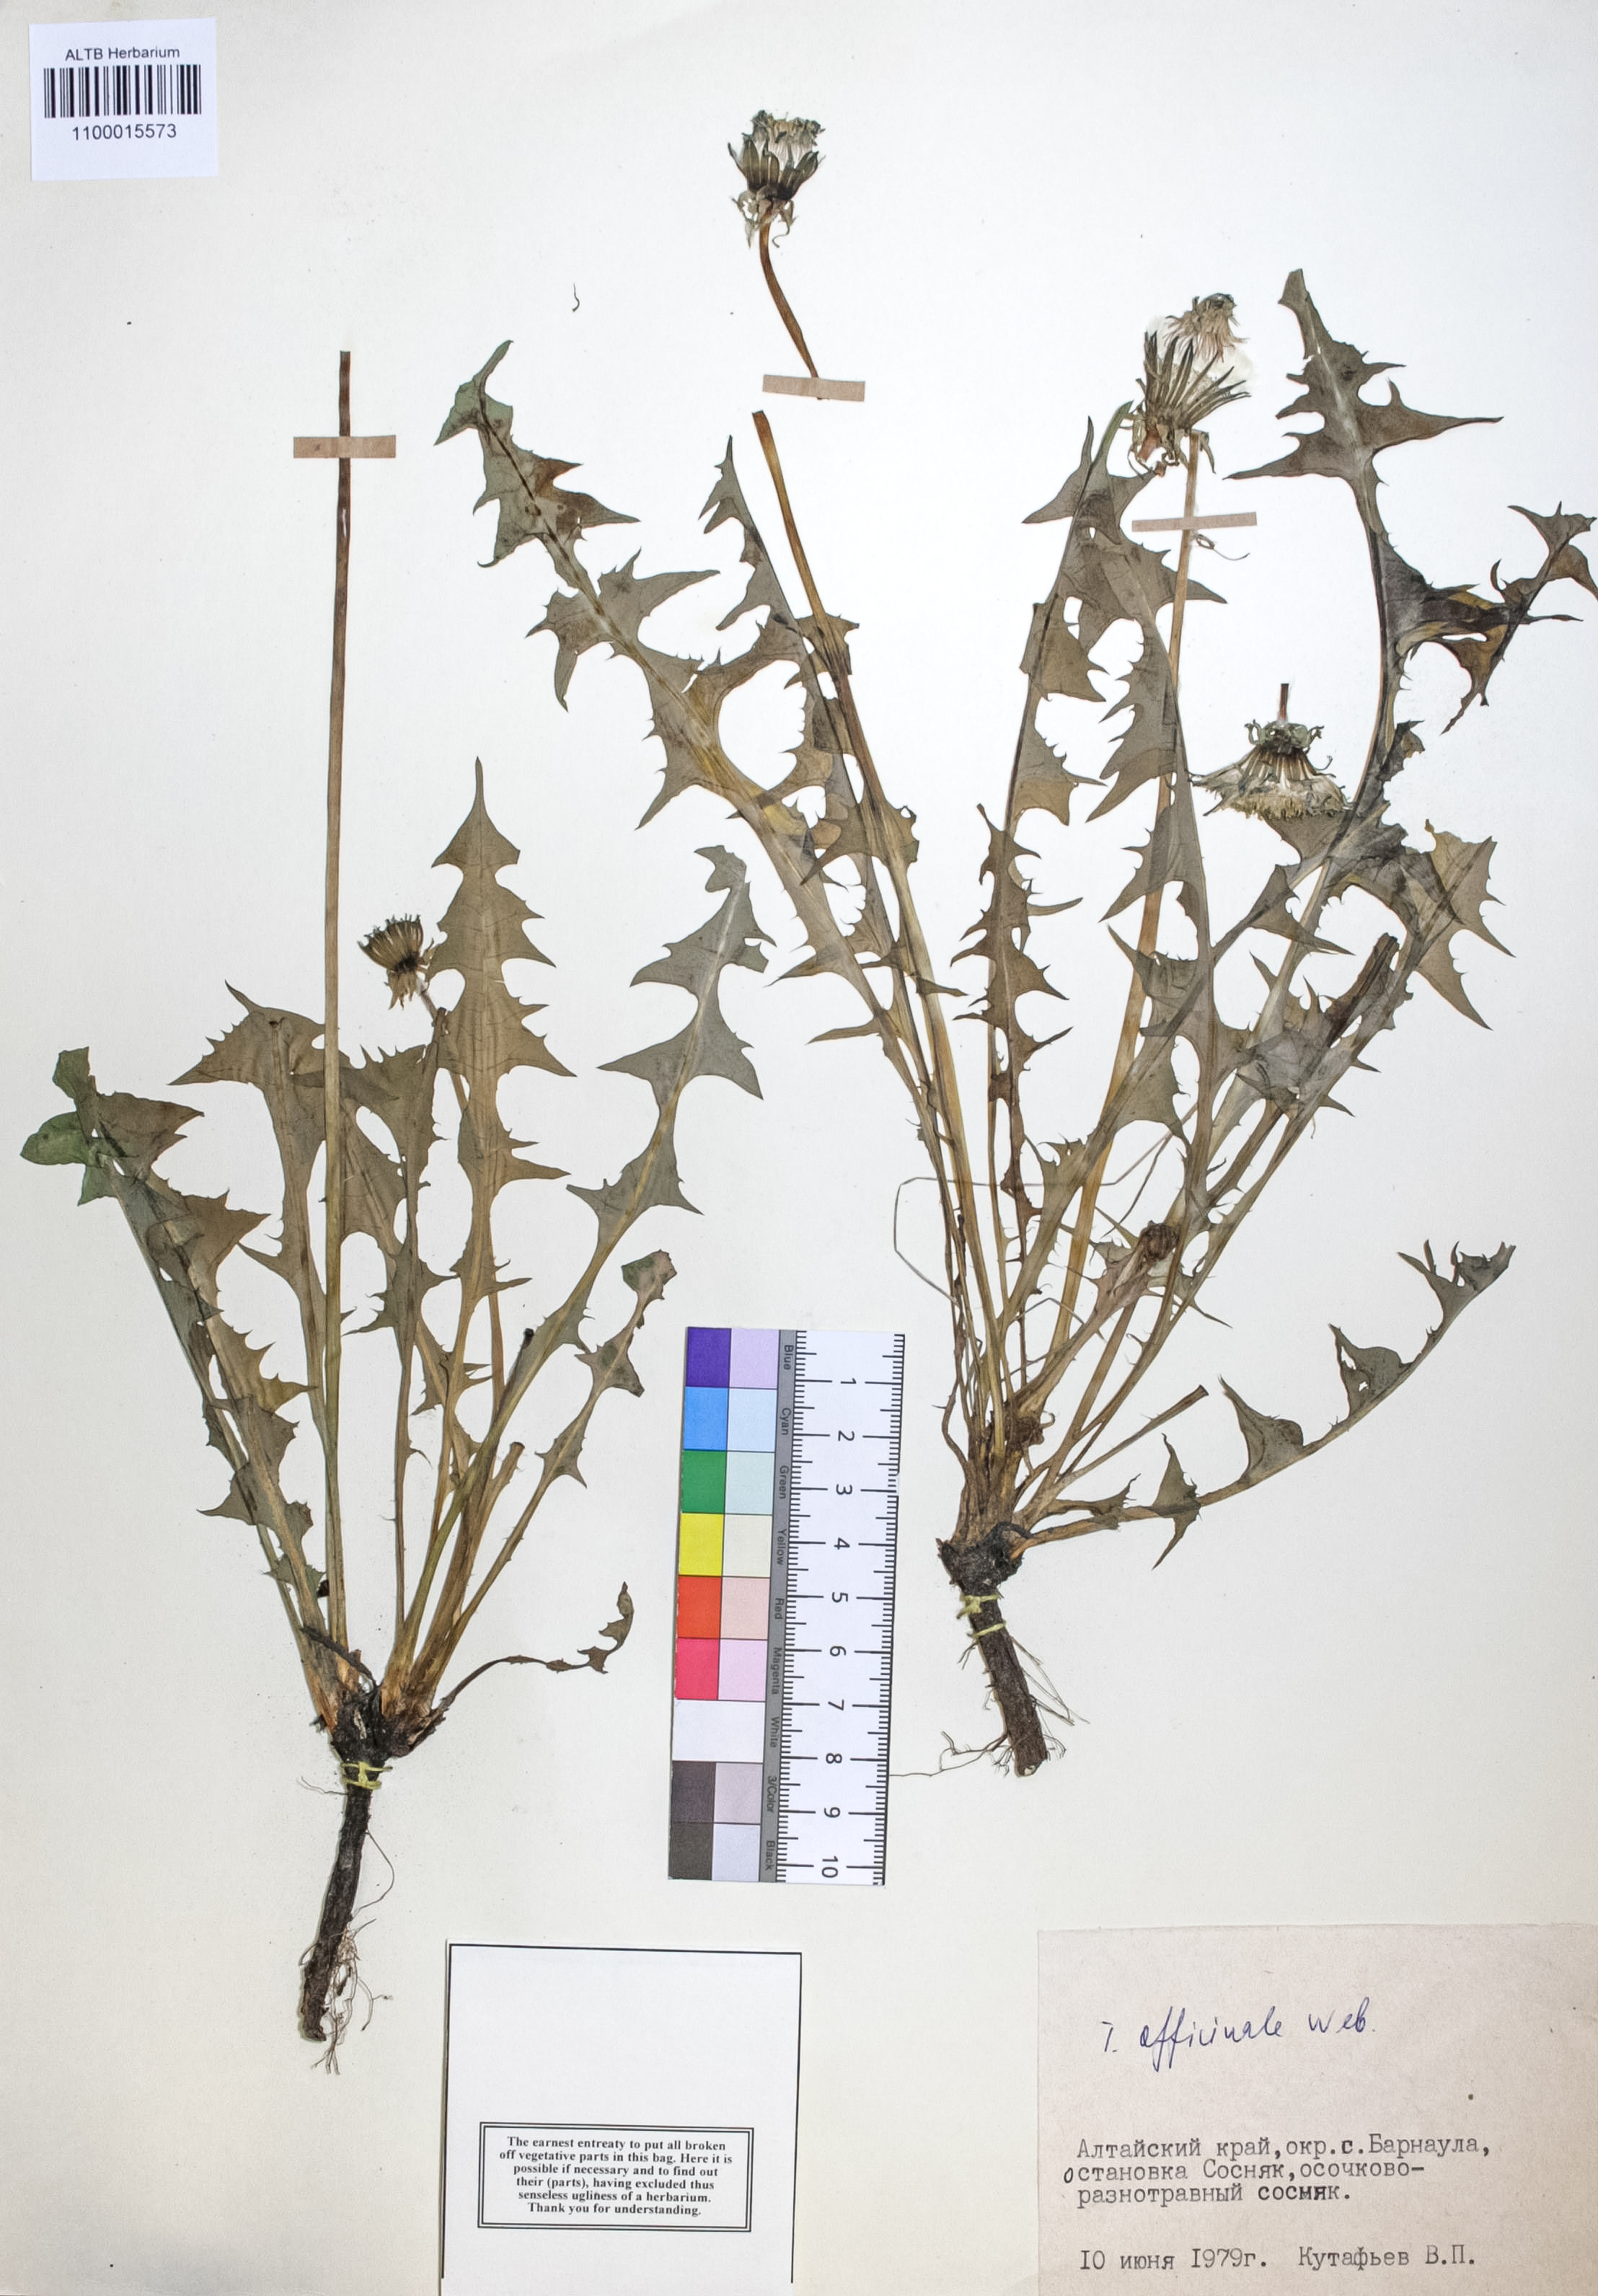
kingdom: Plantae
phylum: Tracheophyta
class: Magnoliopsida
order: Asterales
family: Asteraceae
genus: Taraxacum
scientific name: Taraxacum officinale
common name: Common dandelion
